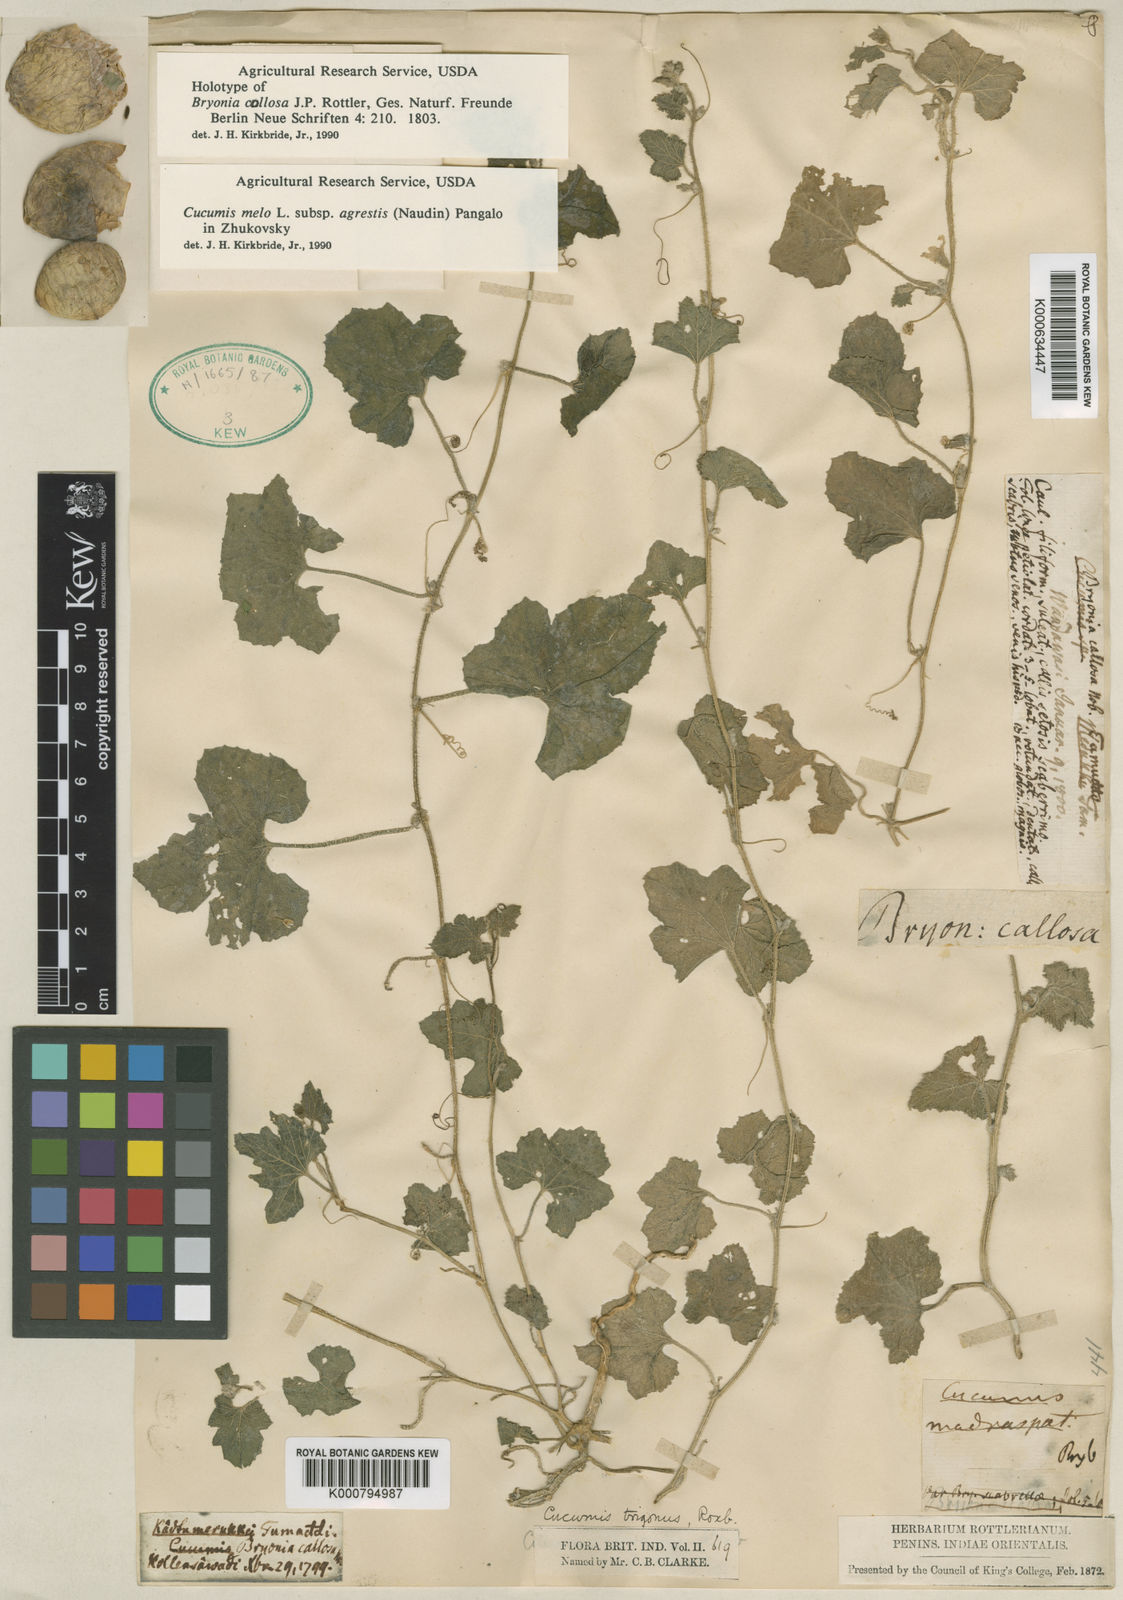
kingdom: Plantae
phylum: Tracheophyta
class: Magnoliopsida
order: Cucurbitales
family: Cucurbitaceae
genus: Cucumis
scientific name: Cucumis melo
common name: Melon
